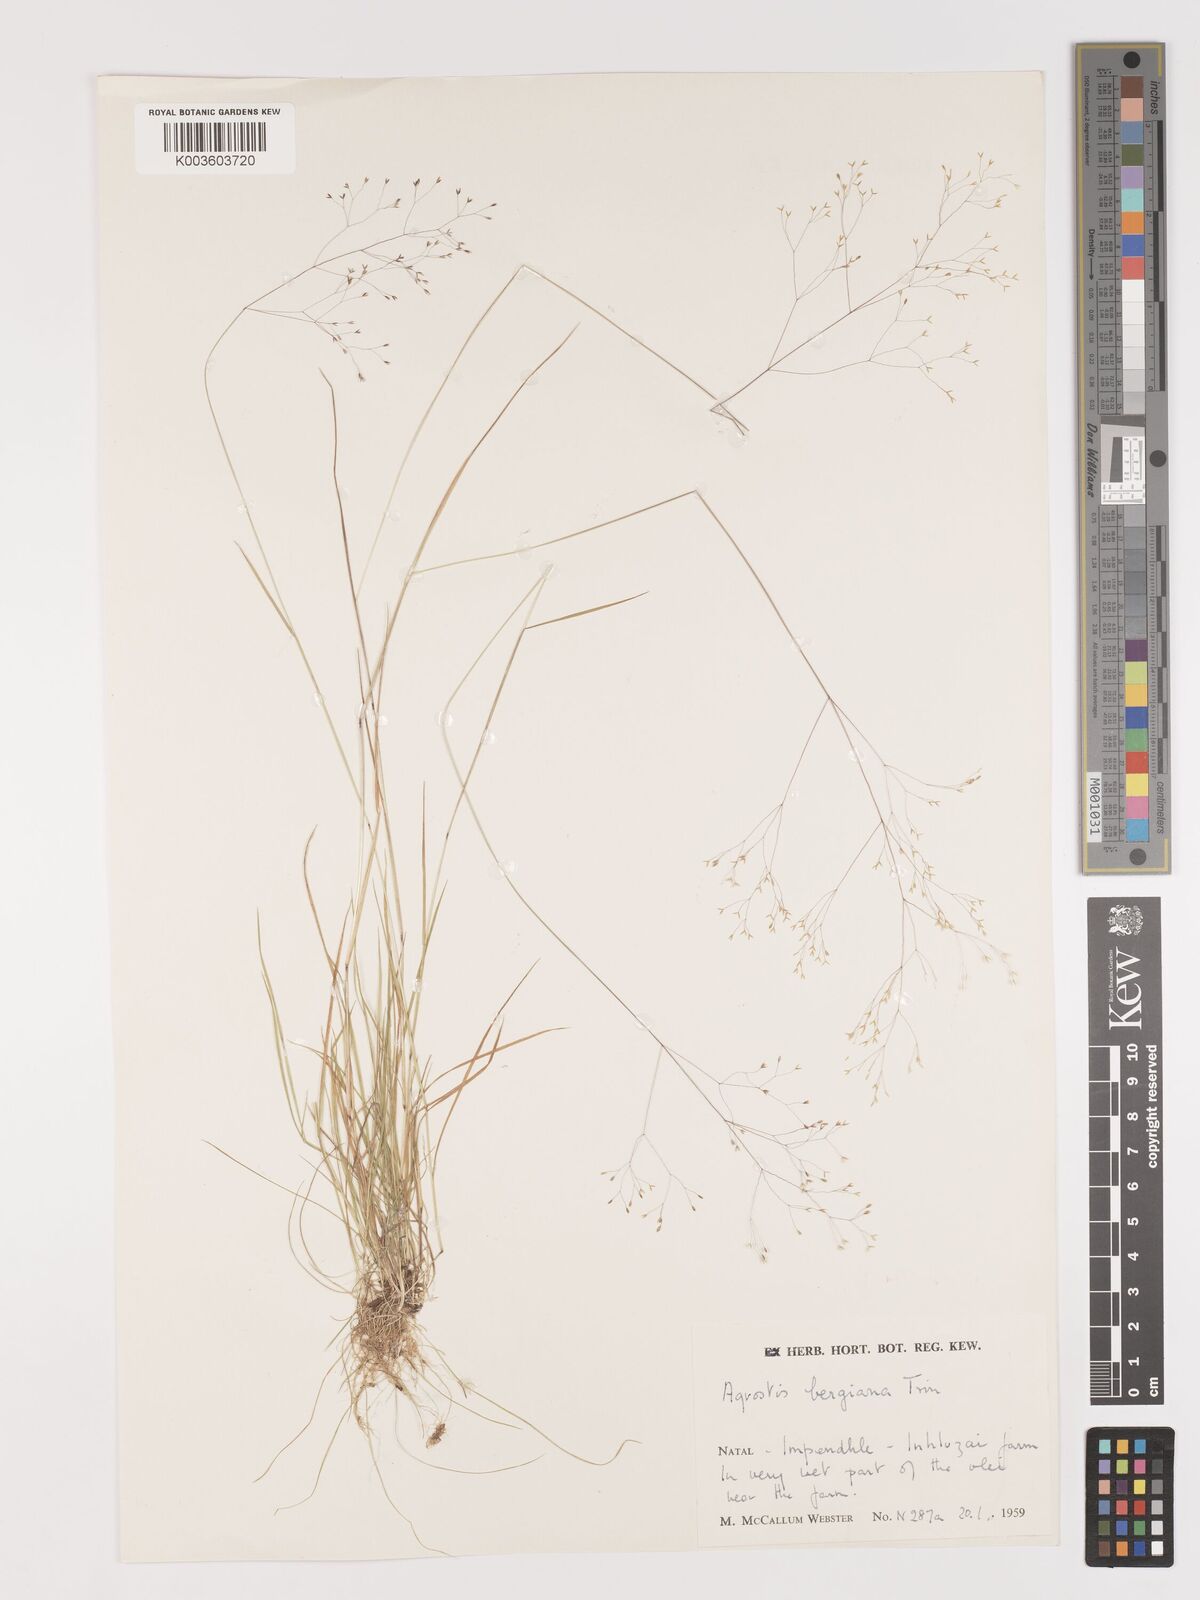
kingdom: Plantae
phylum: Tracheophyta
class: Liliopsida
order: Poales
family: Poaceae
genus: Agrostis
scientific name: Agrostis bergiana
